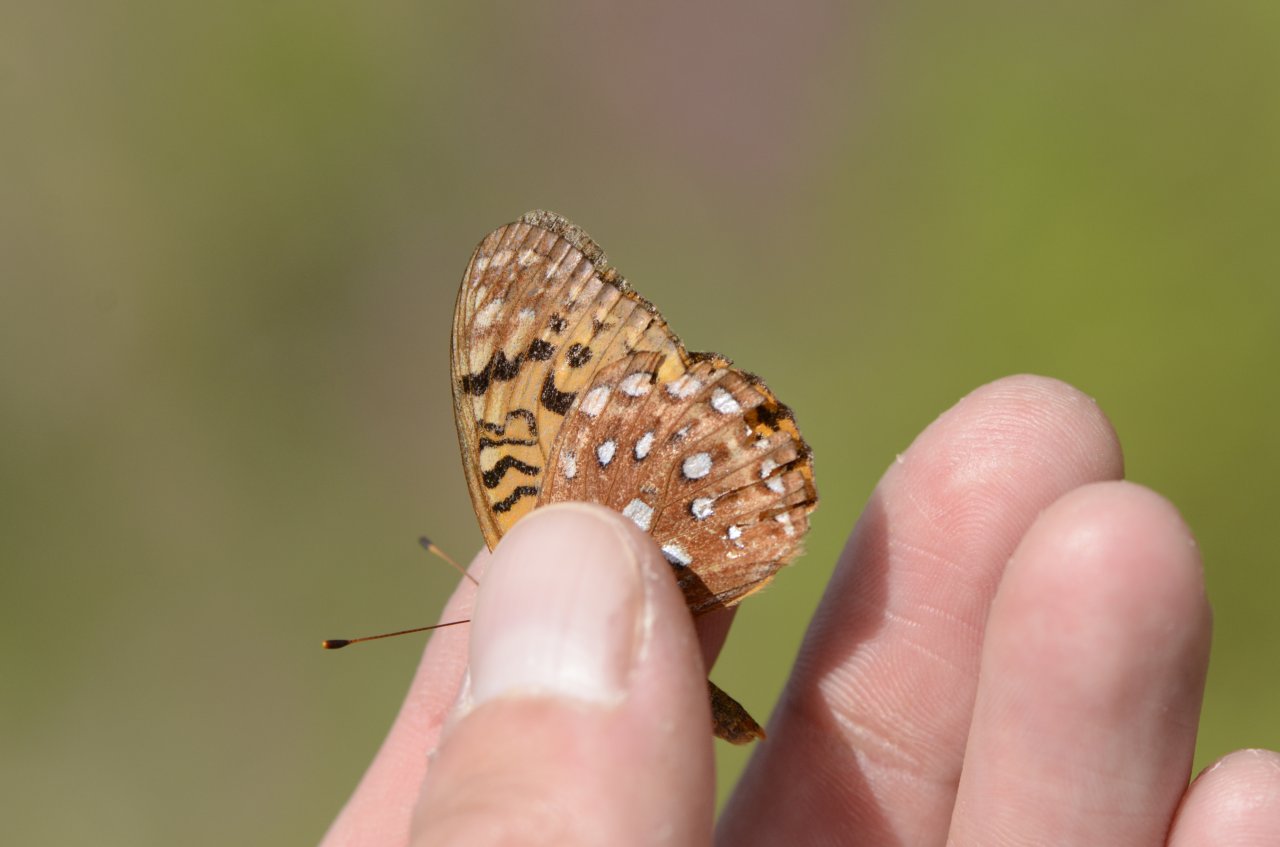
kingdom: Animalia
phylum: Arthropoda
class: Insecta
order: Lepidoptera
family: Nymphalidae
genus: Speyeria
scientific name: Speyeria aphrodite
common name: Aphrodite Fritillary
